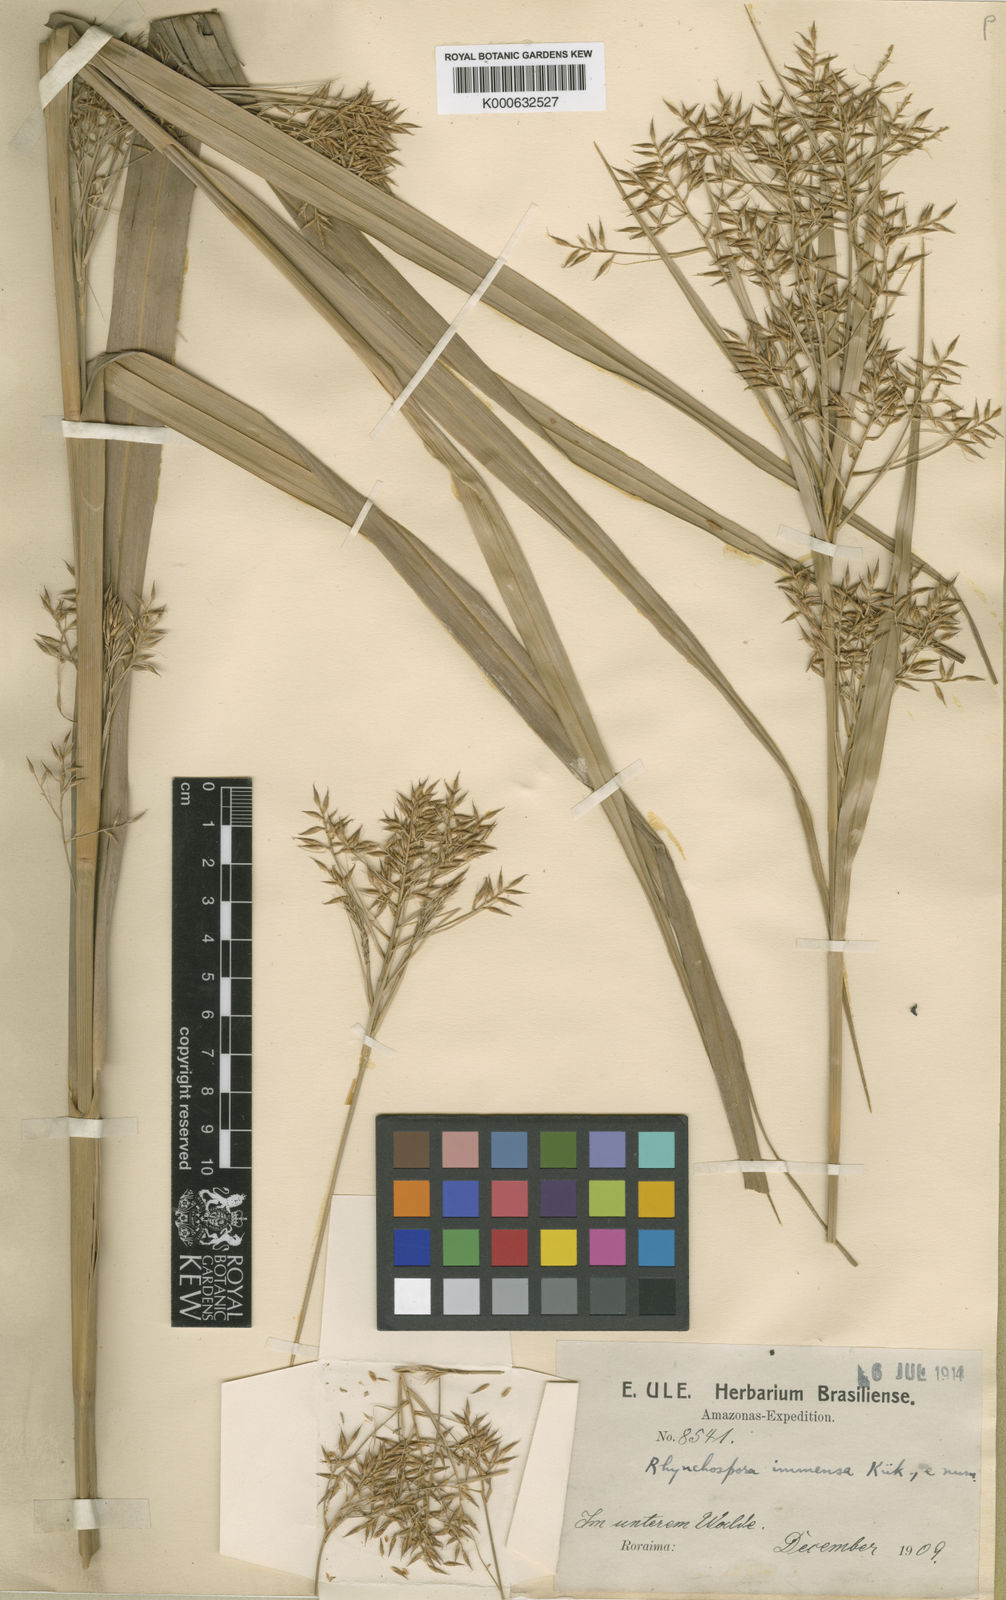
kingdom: Plantae
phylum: Tracheophyta
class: Liliopsida
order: Poales
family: Cyperaceae
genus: Rhynchospora
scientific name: Rhynchospora
